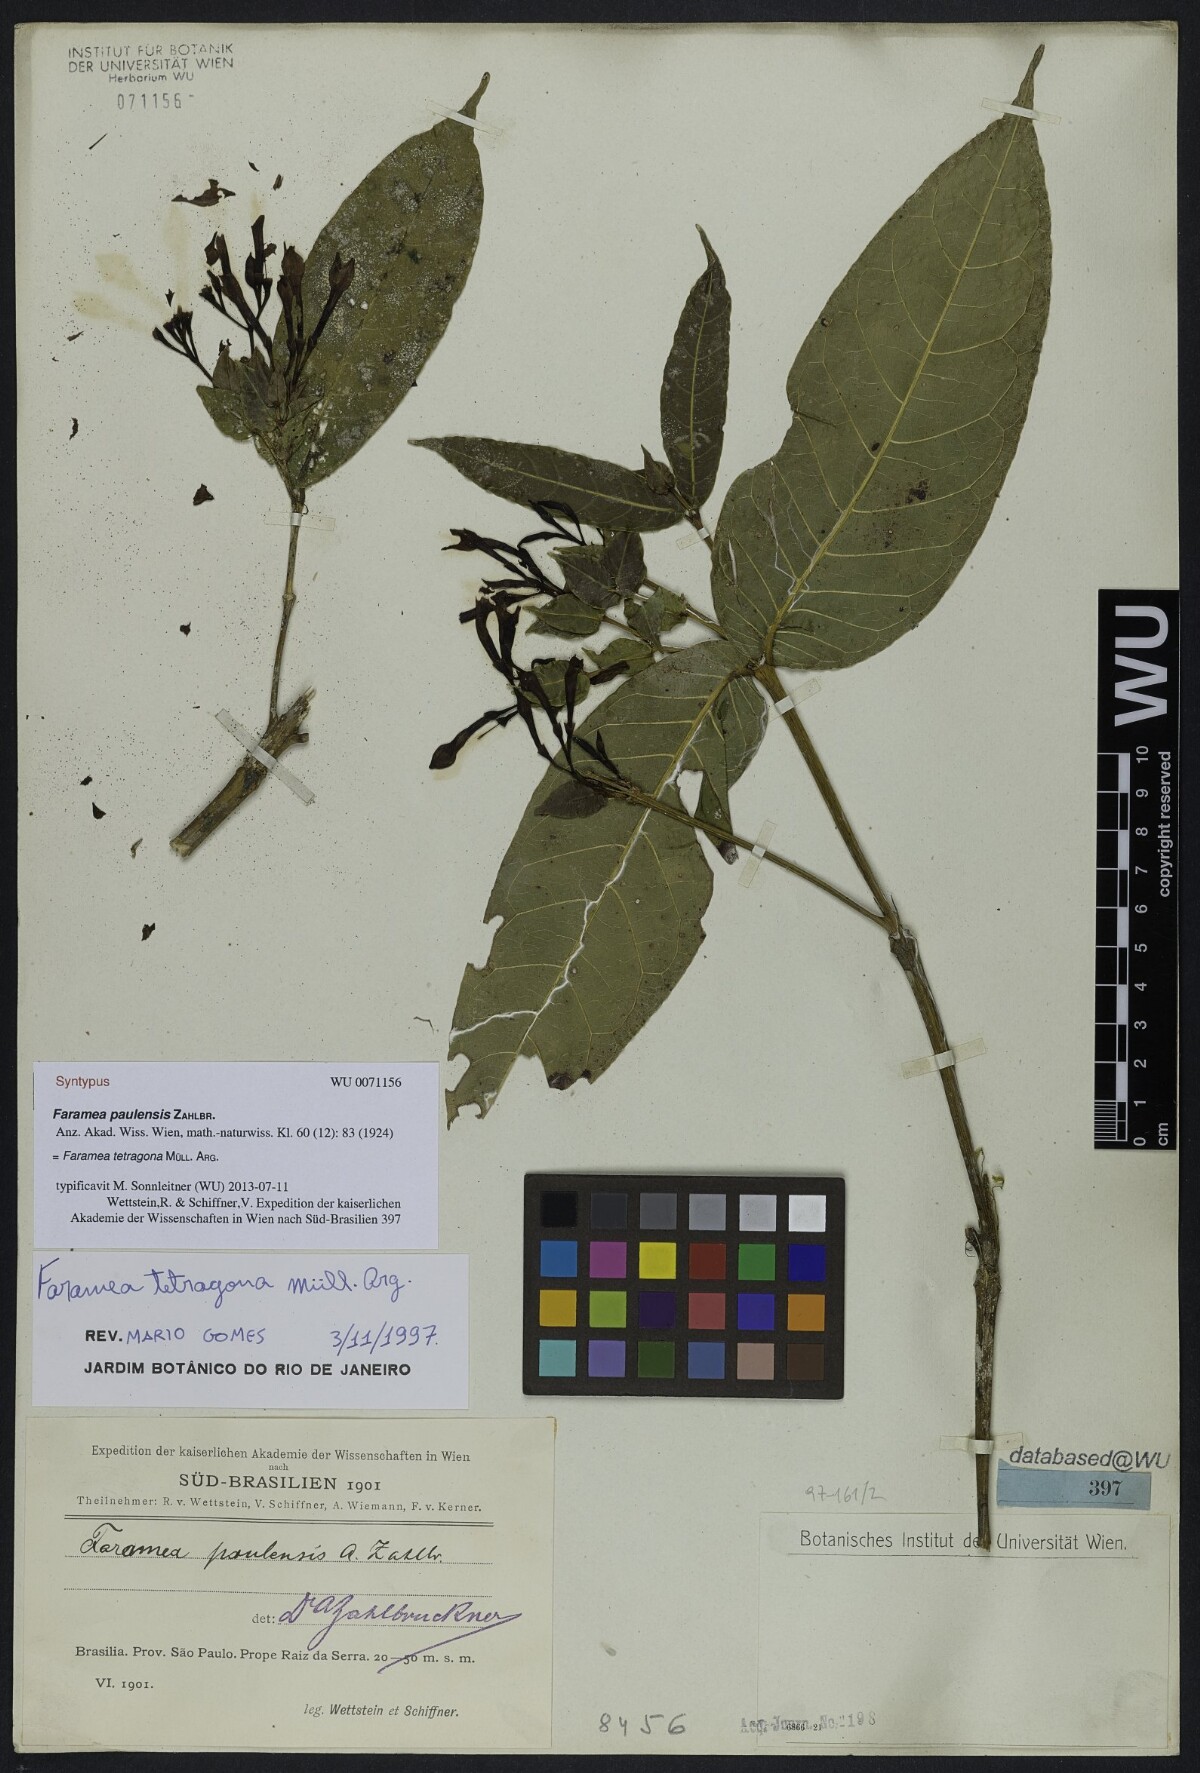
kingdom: Plantae
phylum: Tracheophyta
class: Magnoliopsida
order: Gentianales
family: Rubiaceae
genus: Faramea
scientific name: Faramea tetragona
